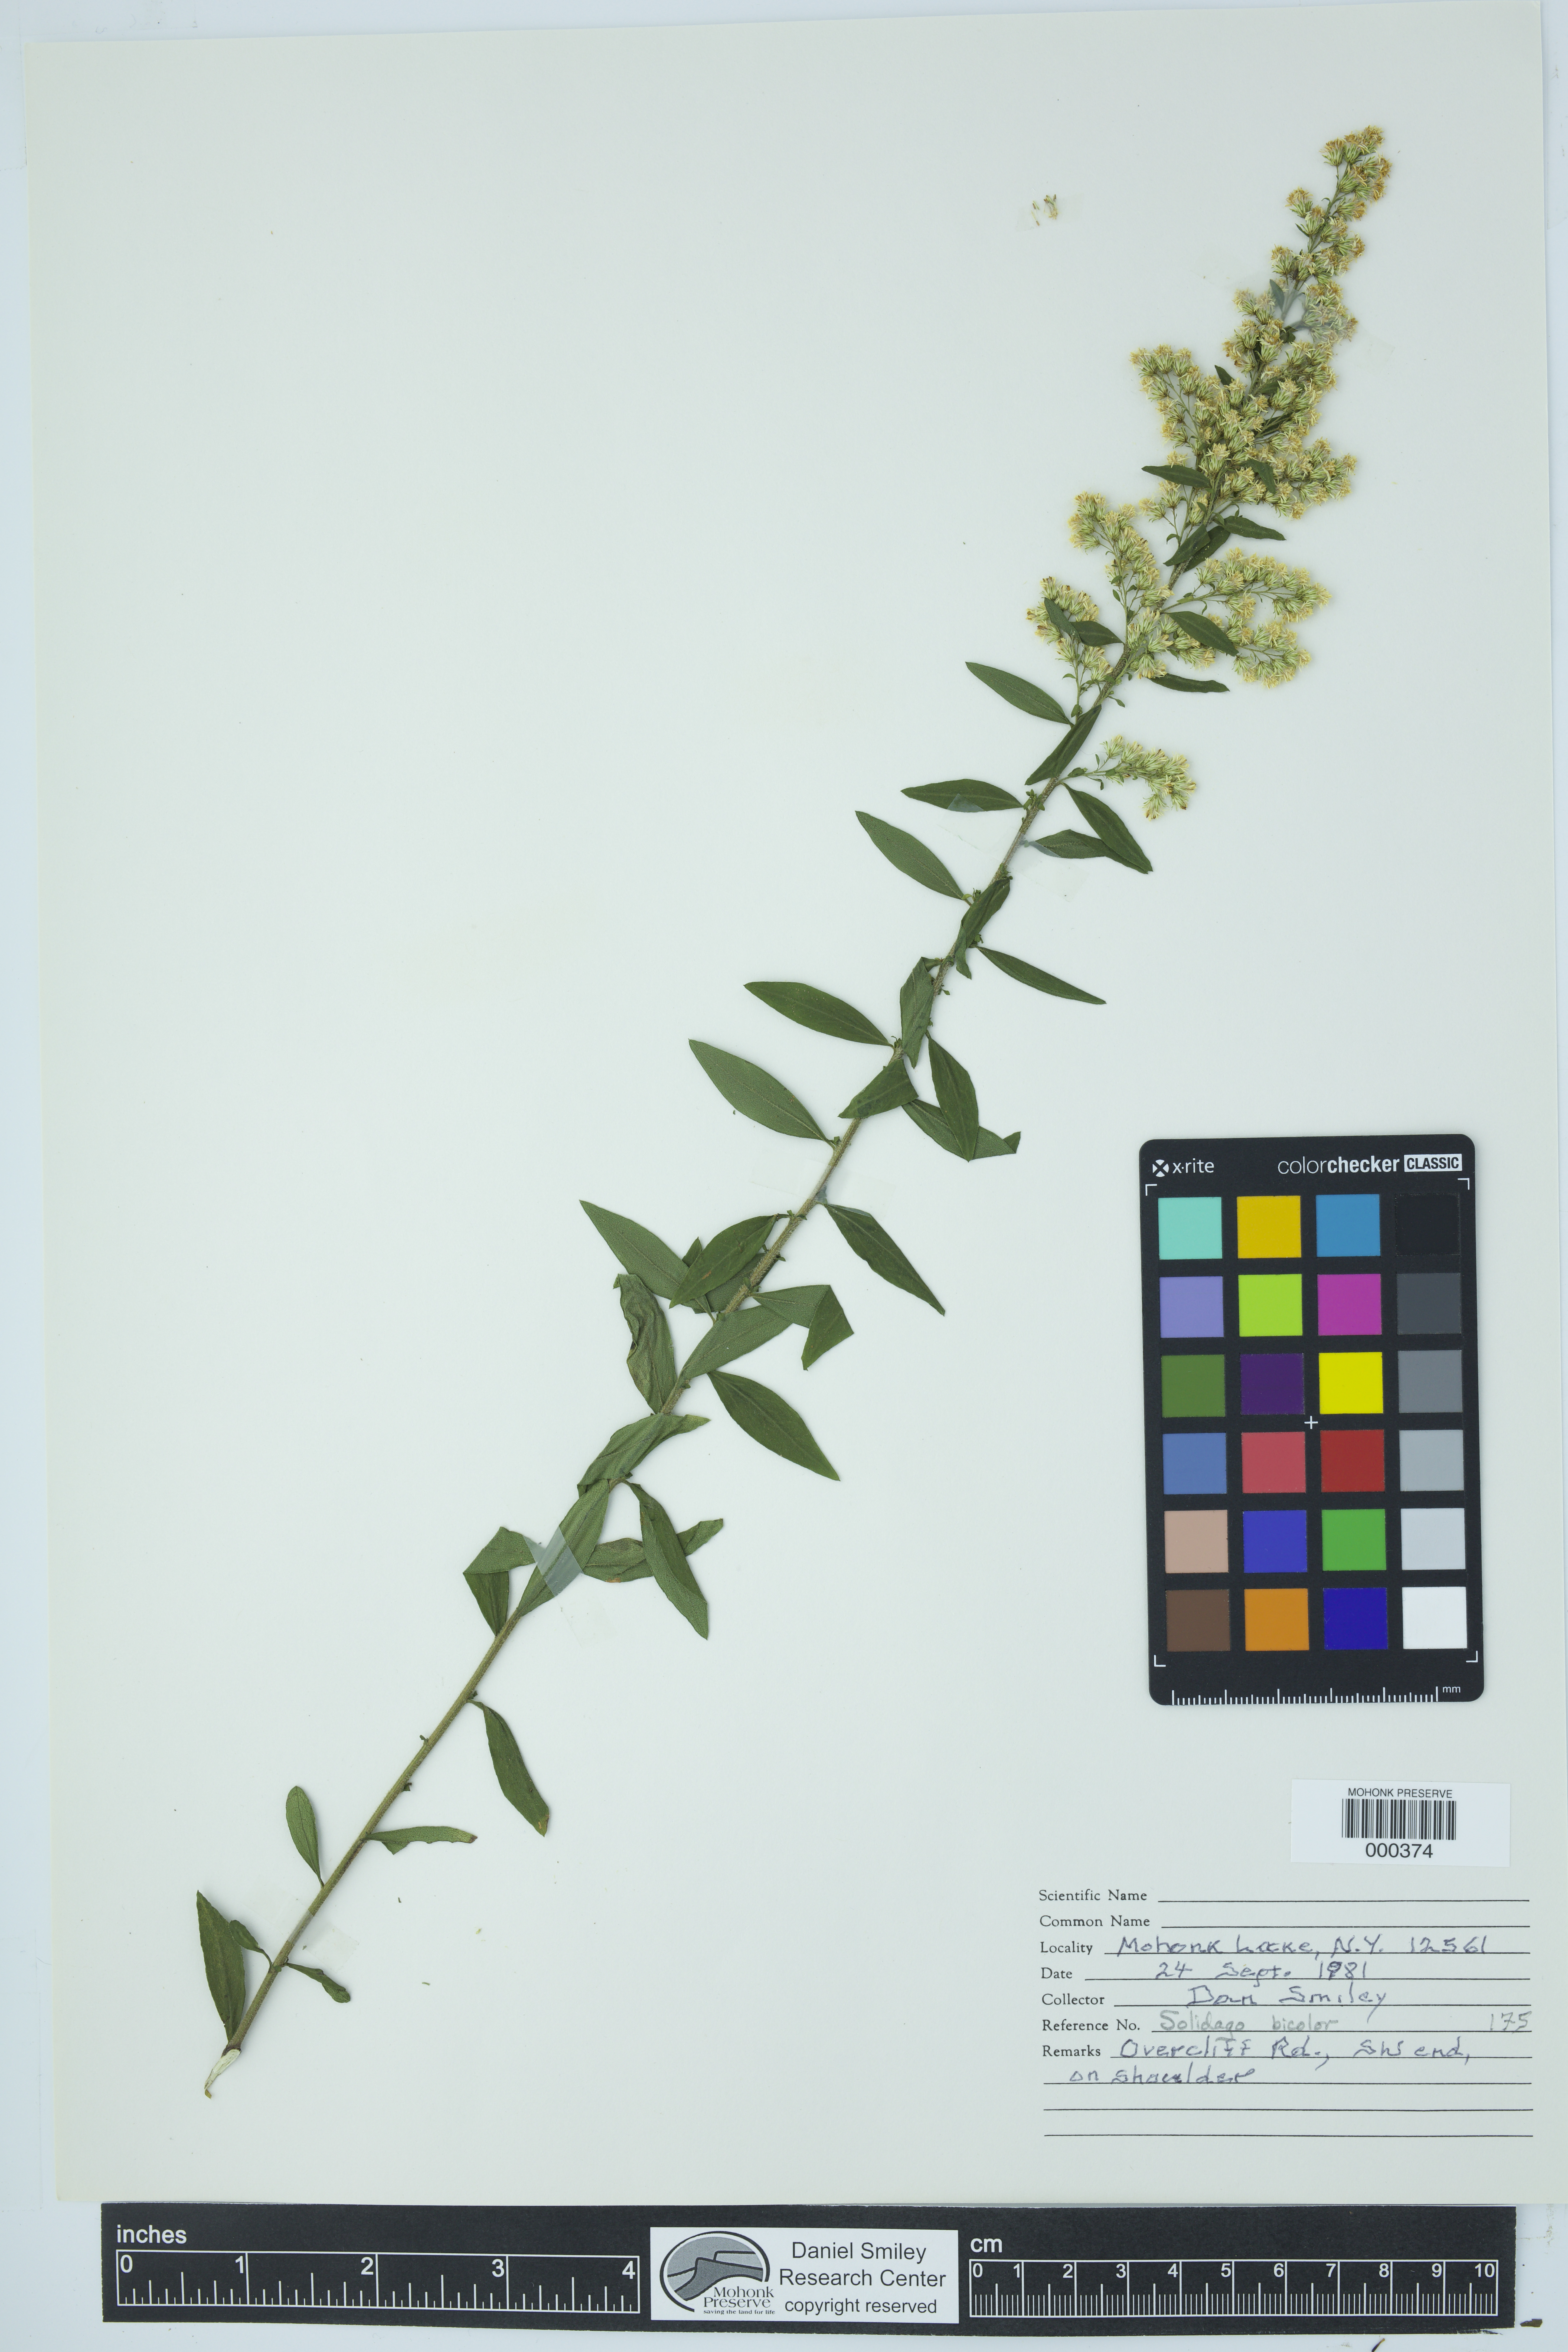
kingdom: Plantae
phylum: Tracheophyta
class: Magnoliopsida
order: Asterales
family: Asteraceae
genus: Solidago
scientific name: Solidago bicolor
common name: Silverrod
